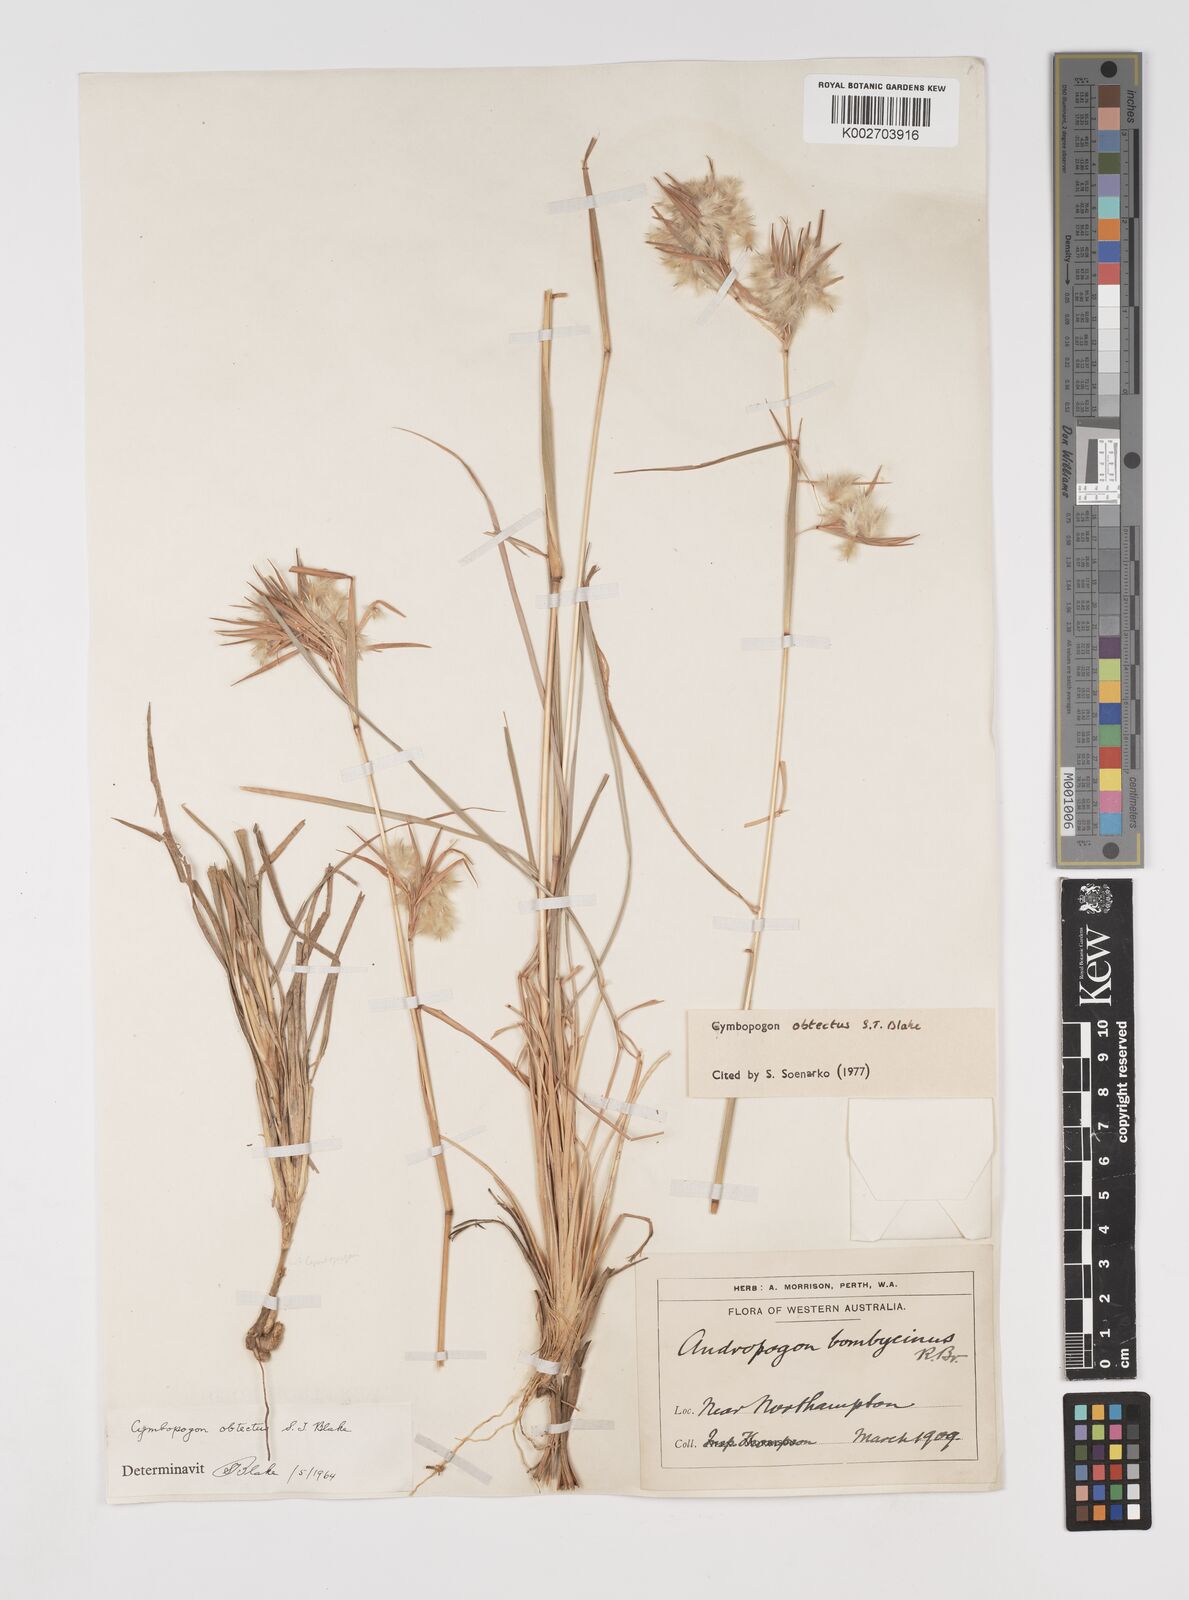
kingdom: Plantae
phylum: Tracheophyta
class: Liliopsida
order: Poales
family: Poaceae
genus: Cymbopogon
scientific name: Cymbopogon obtectus
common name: Silky heads
